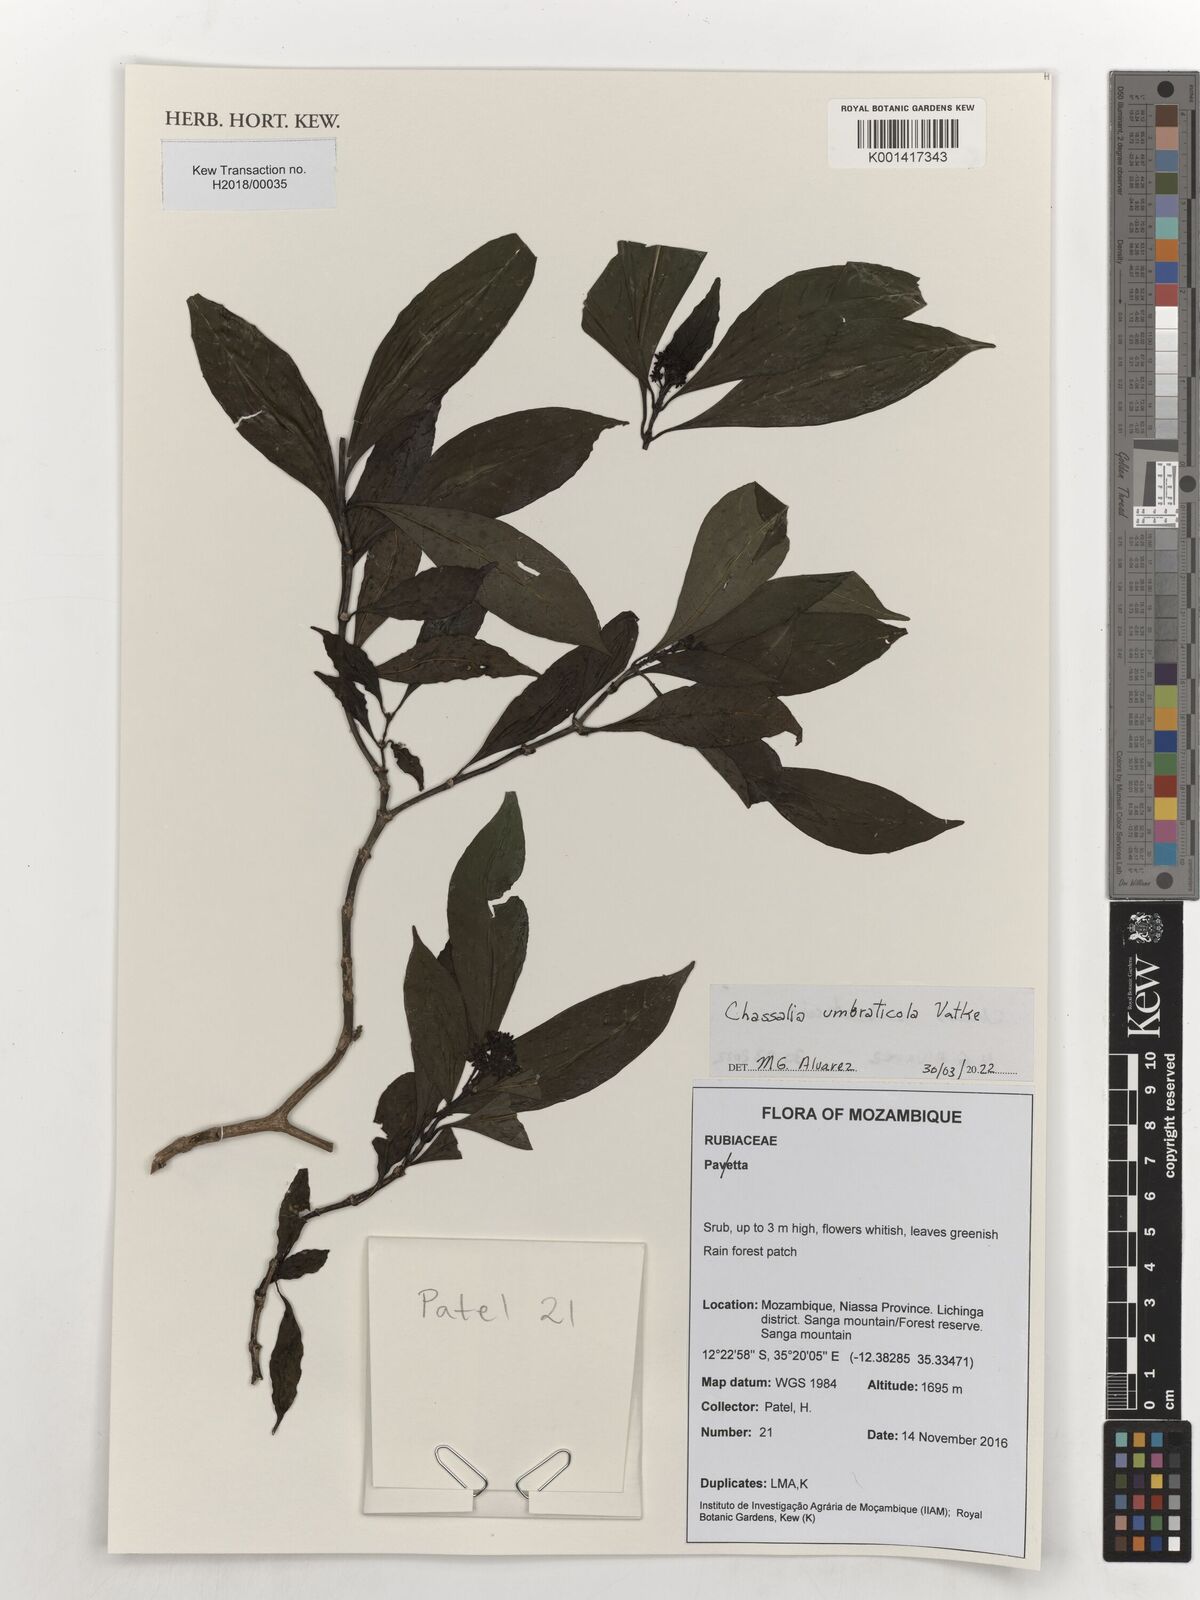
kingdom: Plantae
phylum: Tracheophyta
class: Magnoliopsida
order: Gentianales
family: Rubiaceae
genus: Chassalia
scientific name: Chassalia umbraticola
